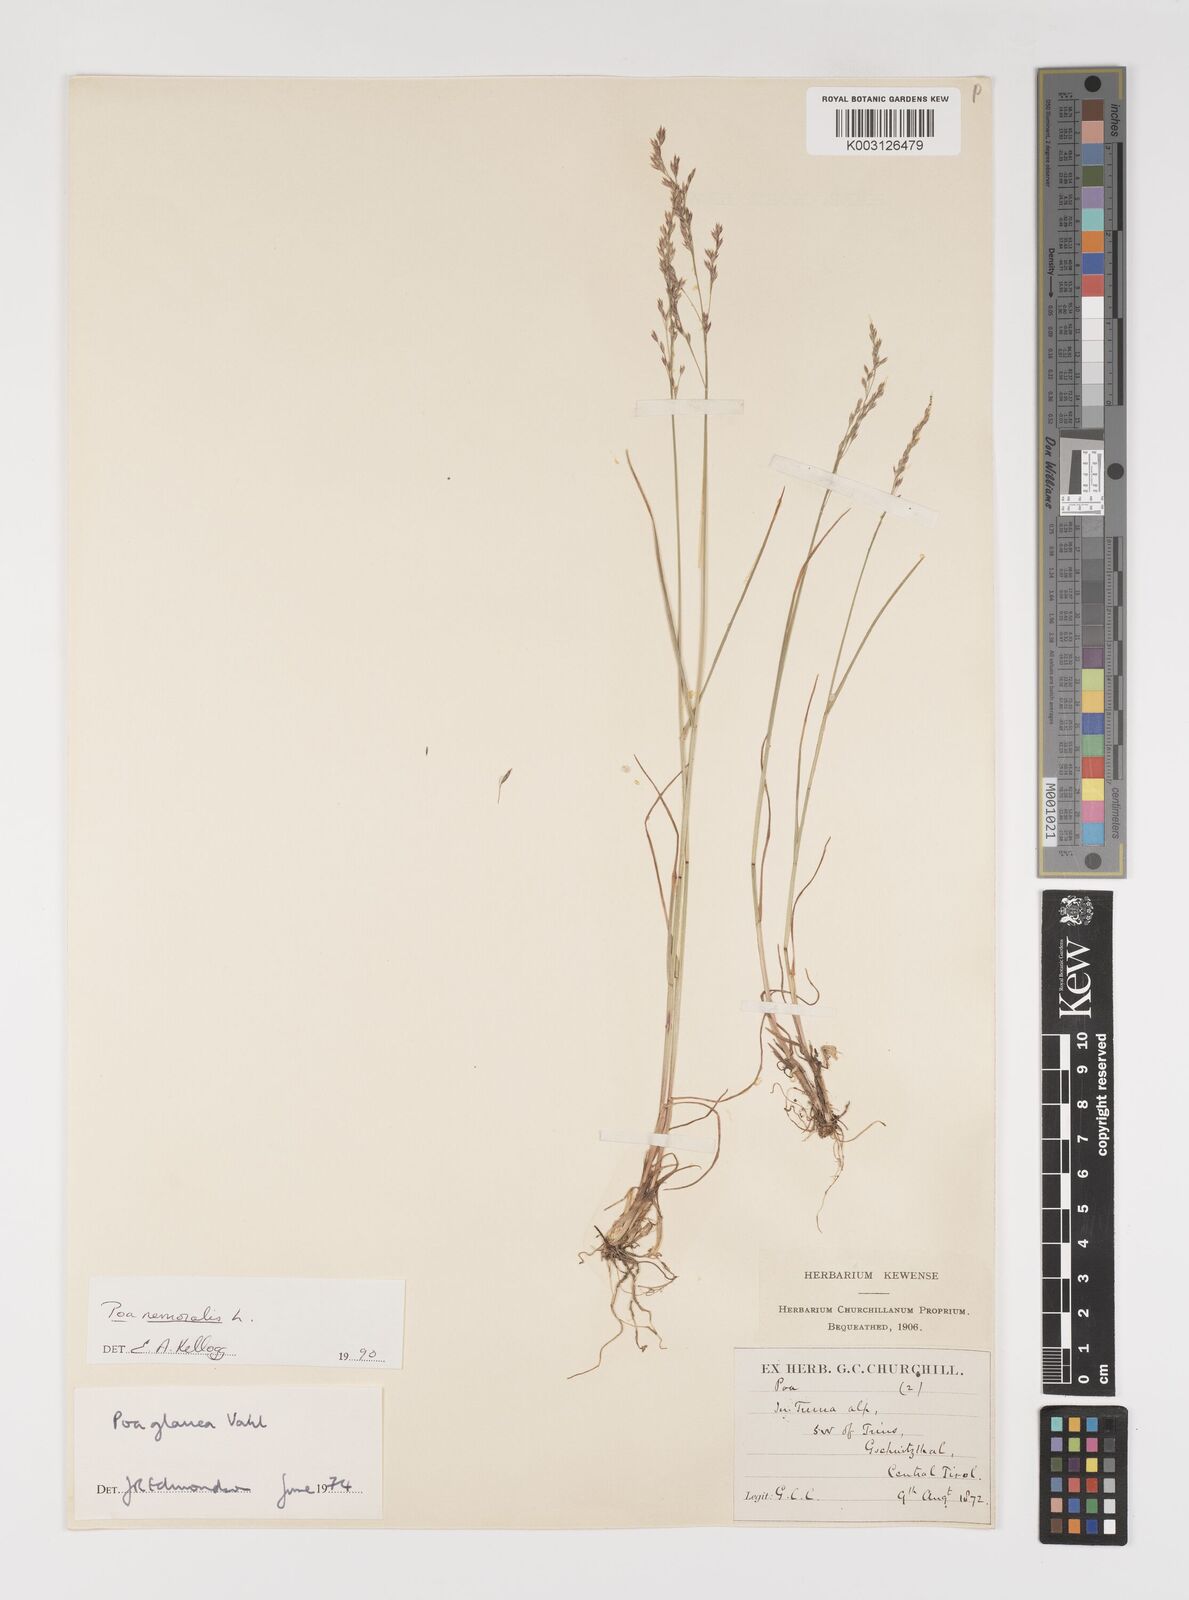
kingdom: Plantae
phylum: Tracheophyta
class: Liliopsida
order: Poales
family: Poaceae
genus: Poa
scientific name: Poa
